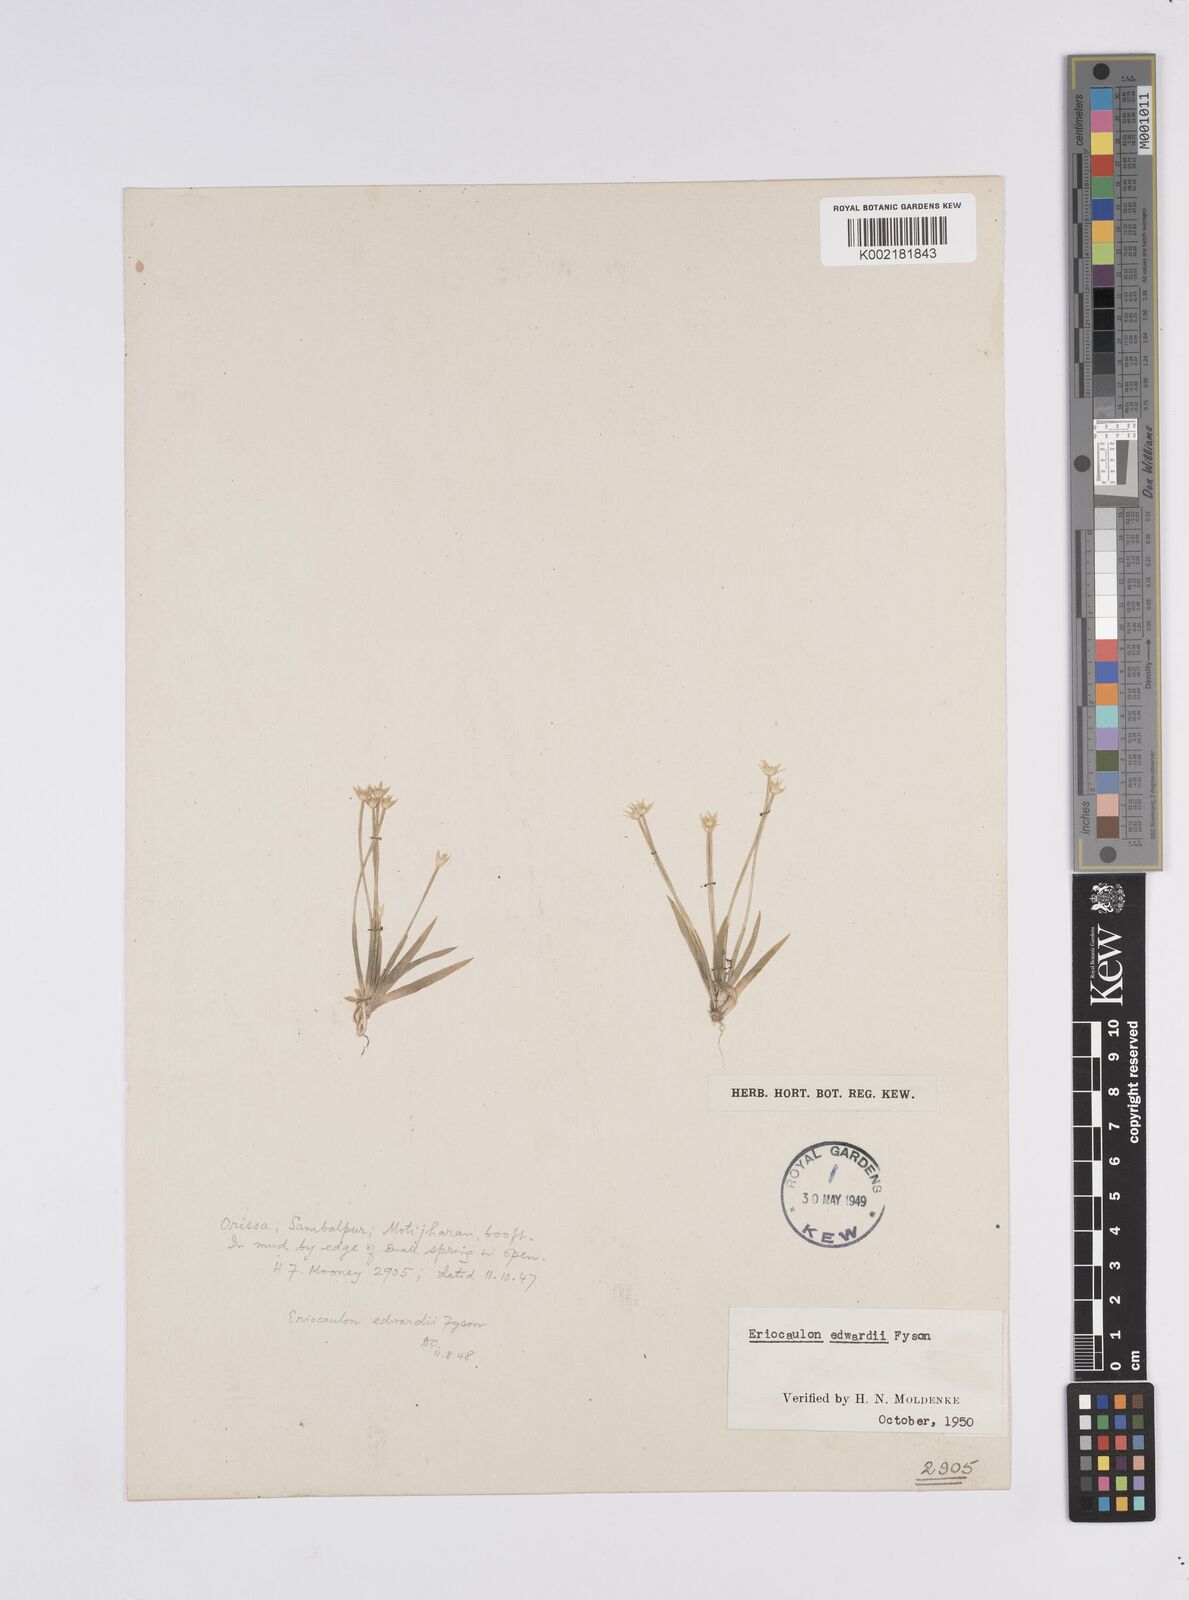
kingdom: Plantae
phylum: Tracheophyta
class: Liliopsida
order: Poales
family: Eriocaulaceae
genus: Eriocaulon
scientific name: Eriocaulon edwardii
